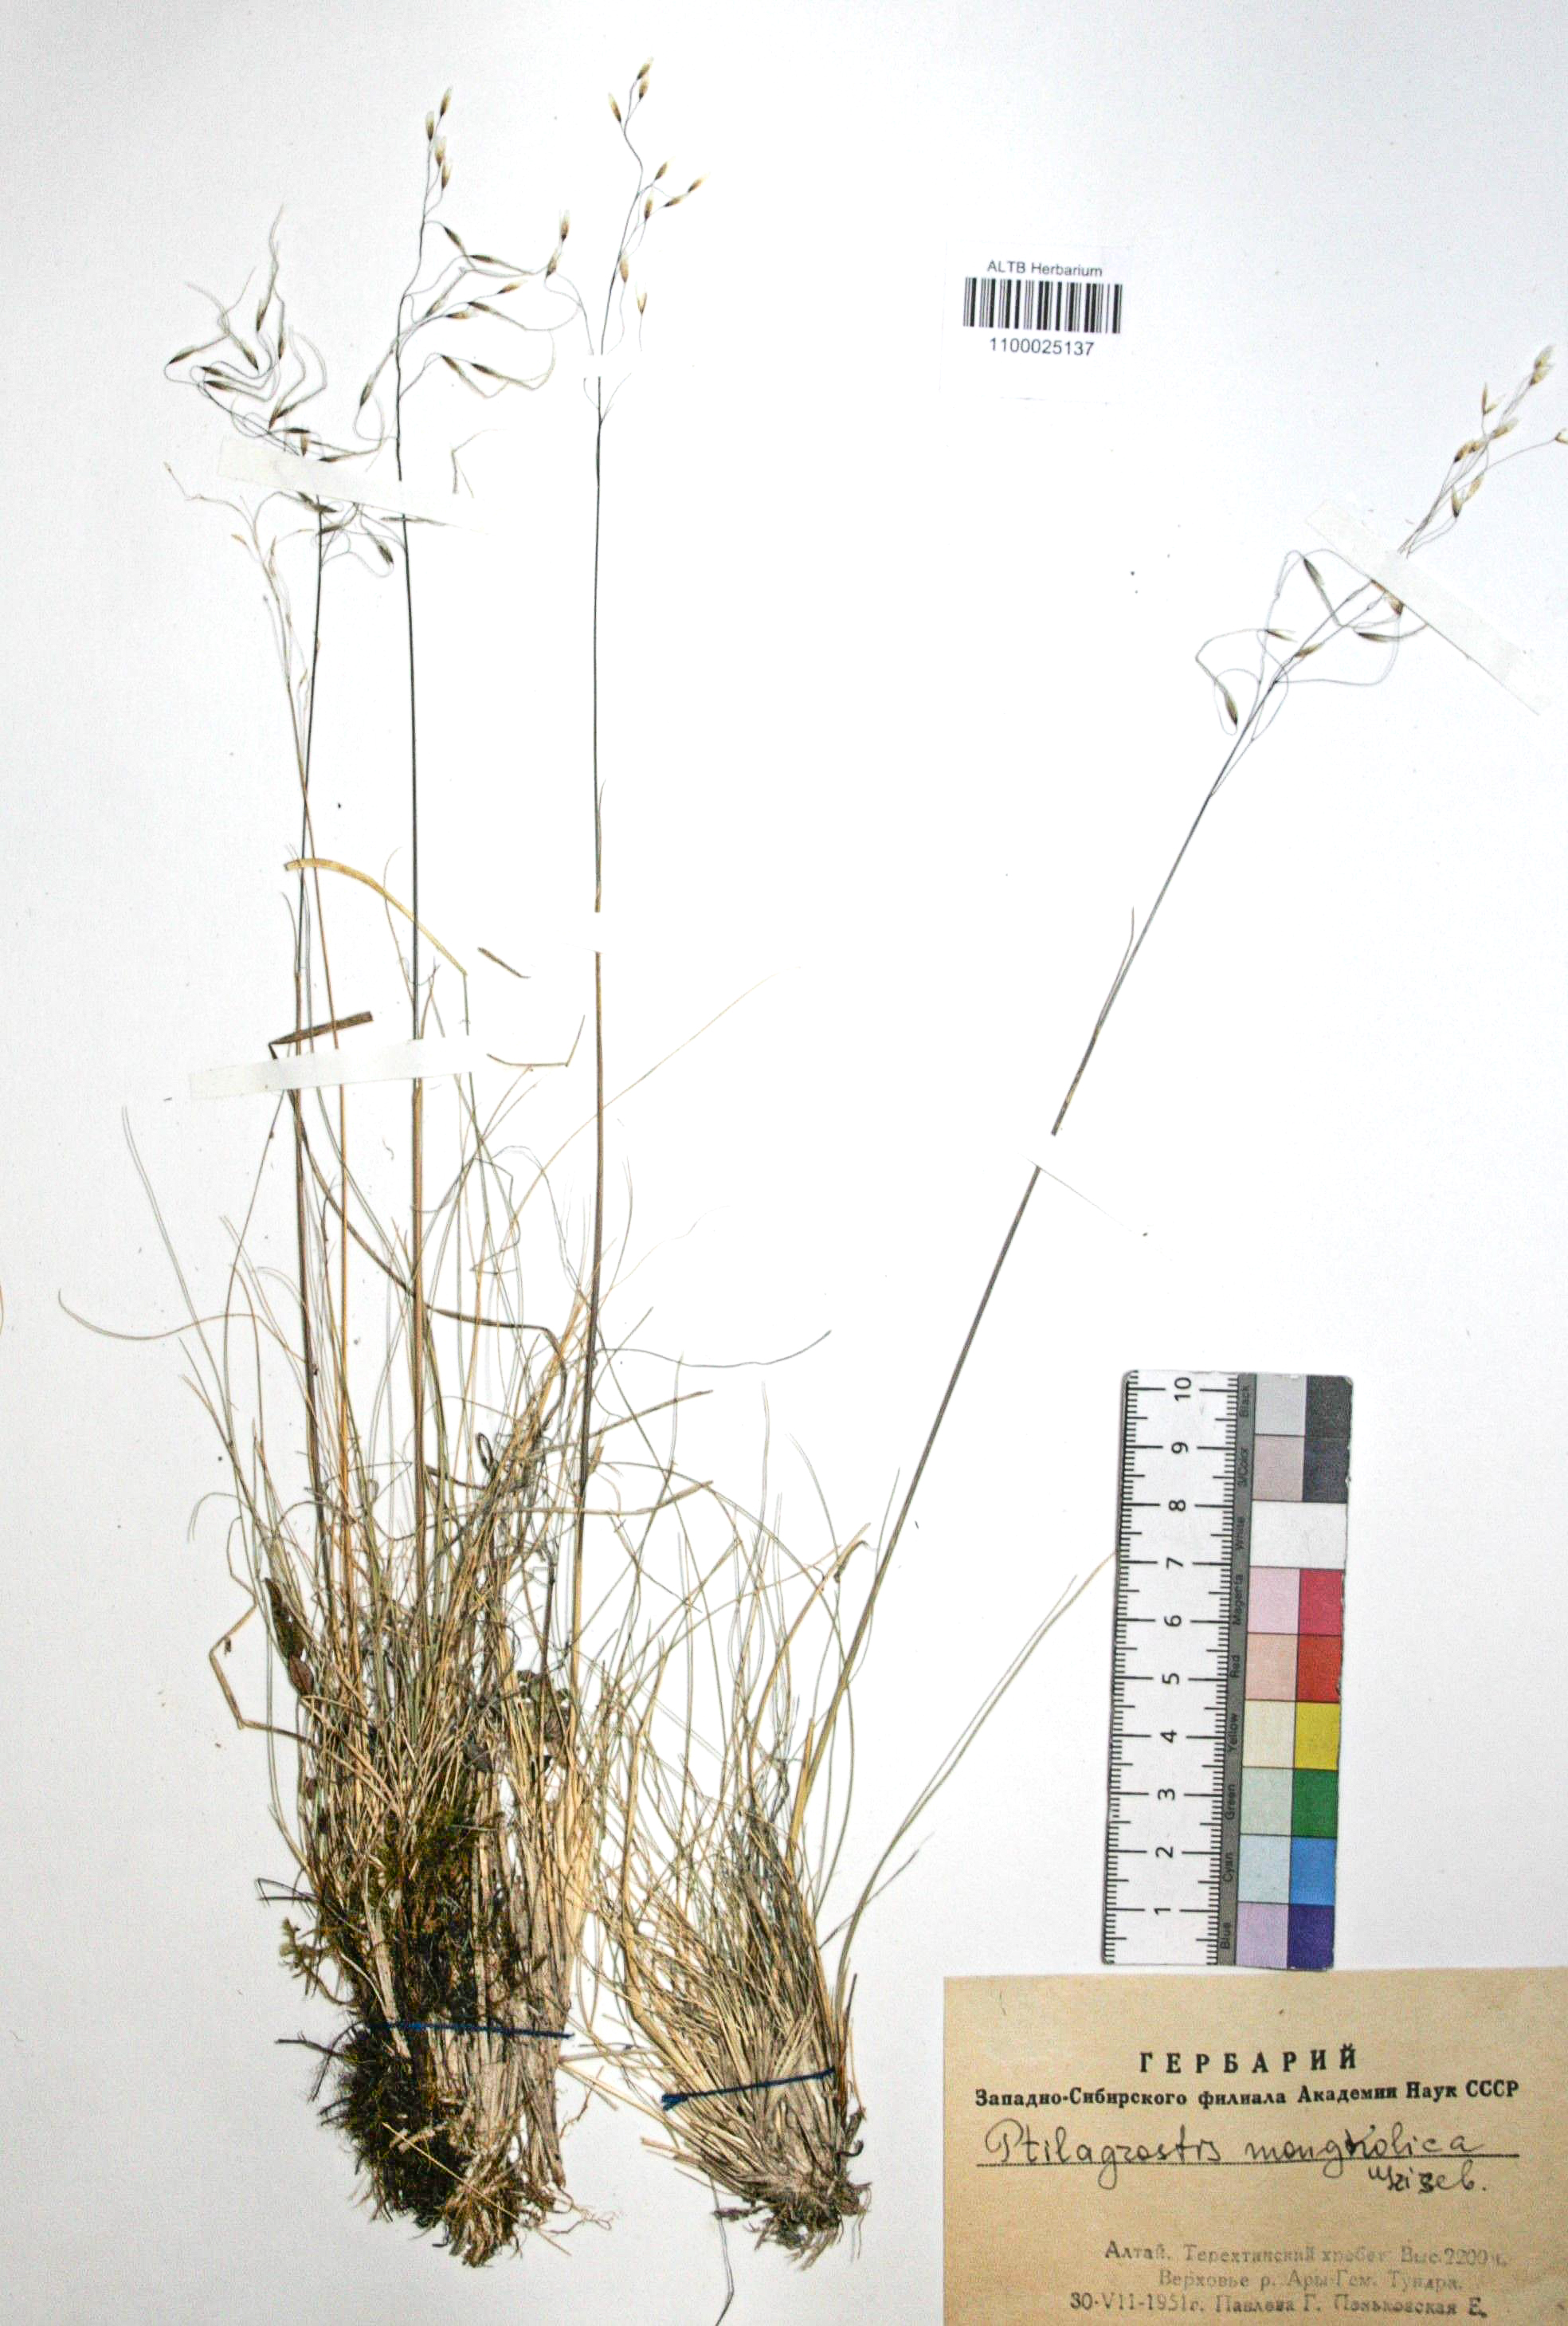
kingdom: Plantae
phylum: Tracheophyta
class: Liliopsida
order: Poales
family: Poaceae
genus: Ptilagrostis
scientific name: Ptilagrostis mongholica
